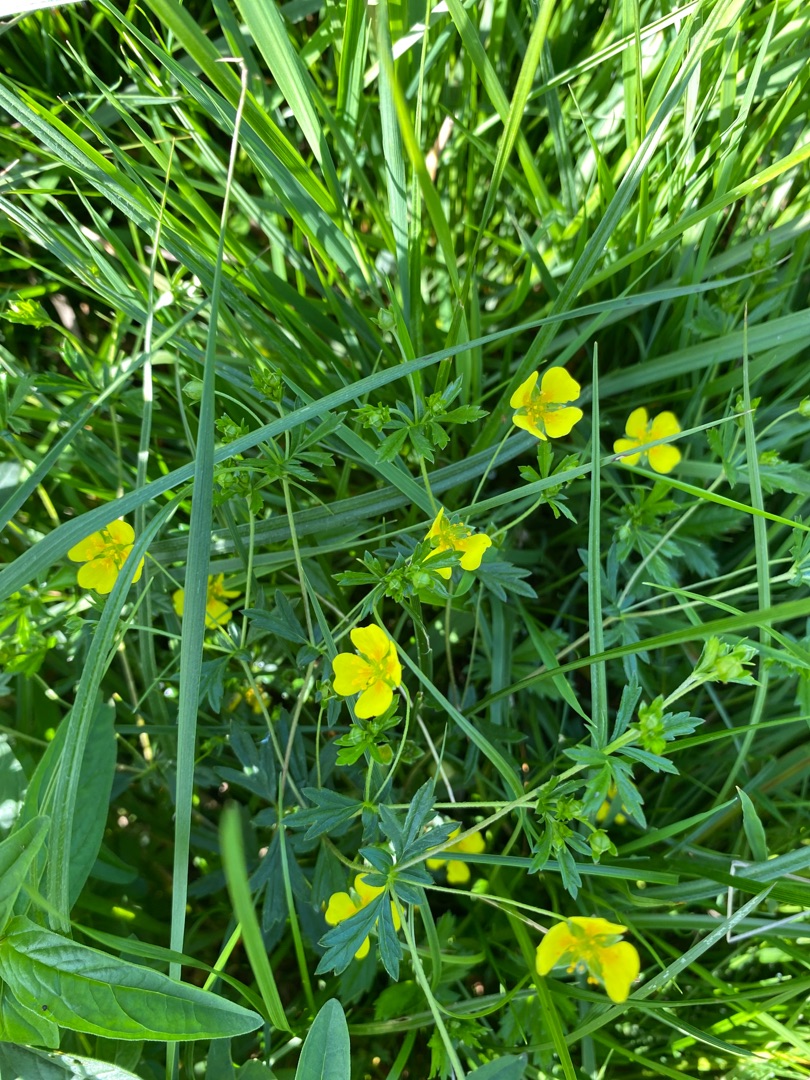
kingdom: Plantae
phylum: Tracheophyta
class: Magnoliopsida
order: Rosales
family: Rosaceae
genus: Potentilla
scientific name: Potentilla erecta
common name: Tormentil
